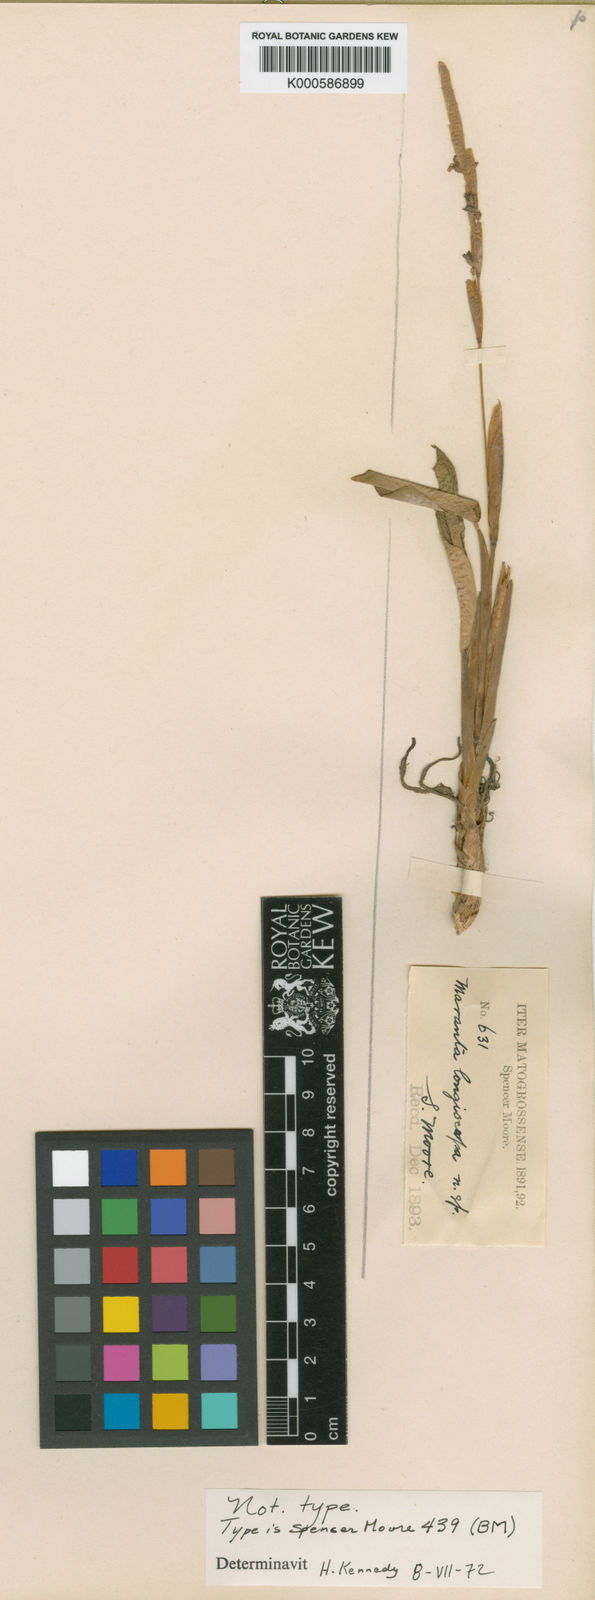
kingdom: Plantae
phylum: Tracheophyta
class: Liliopsida
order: Zingiberales
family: Marantaceae
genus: Maranta
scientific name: Maranta phrynioides
